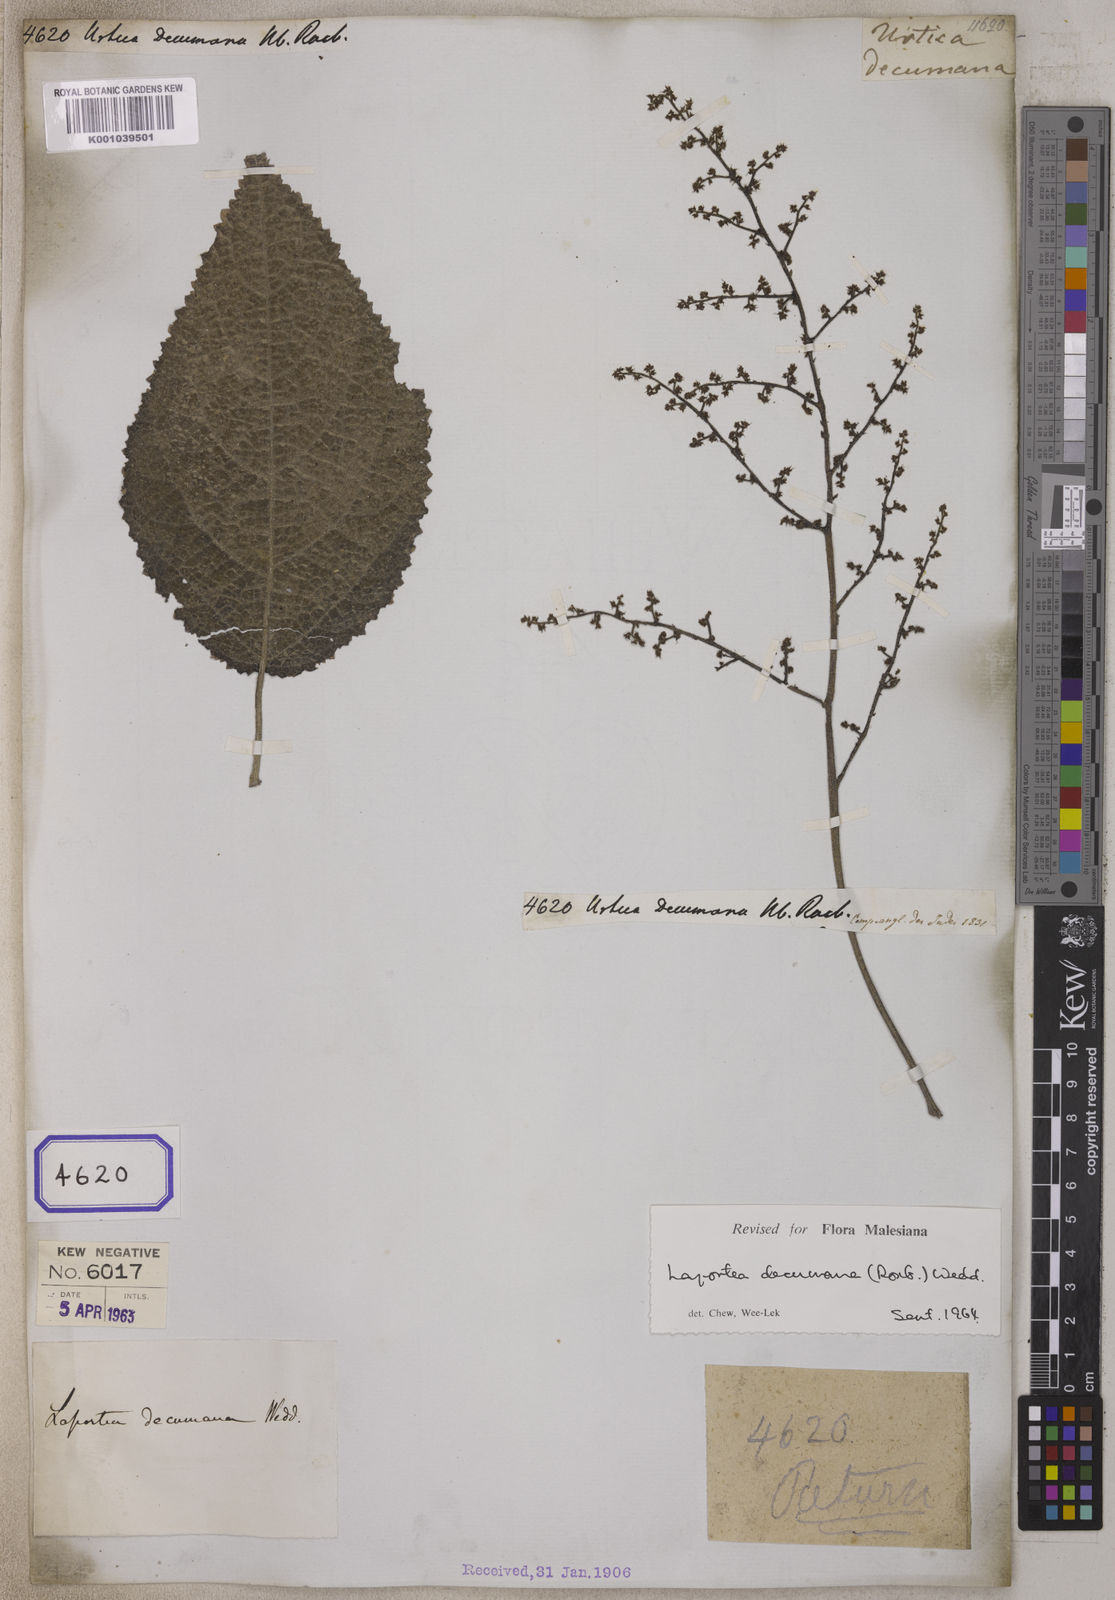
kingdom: Plantae
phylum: Tracheophyta
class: Magnoliopsida
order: Rosales
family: Urticaceae
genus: Laportea
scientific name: Laportea decumana
